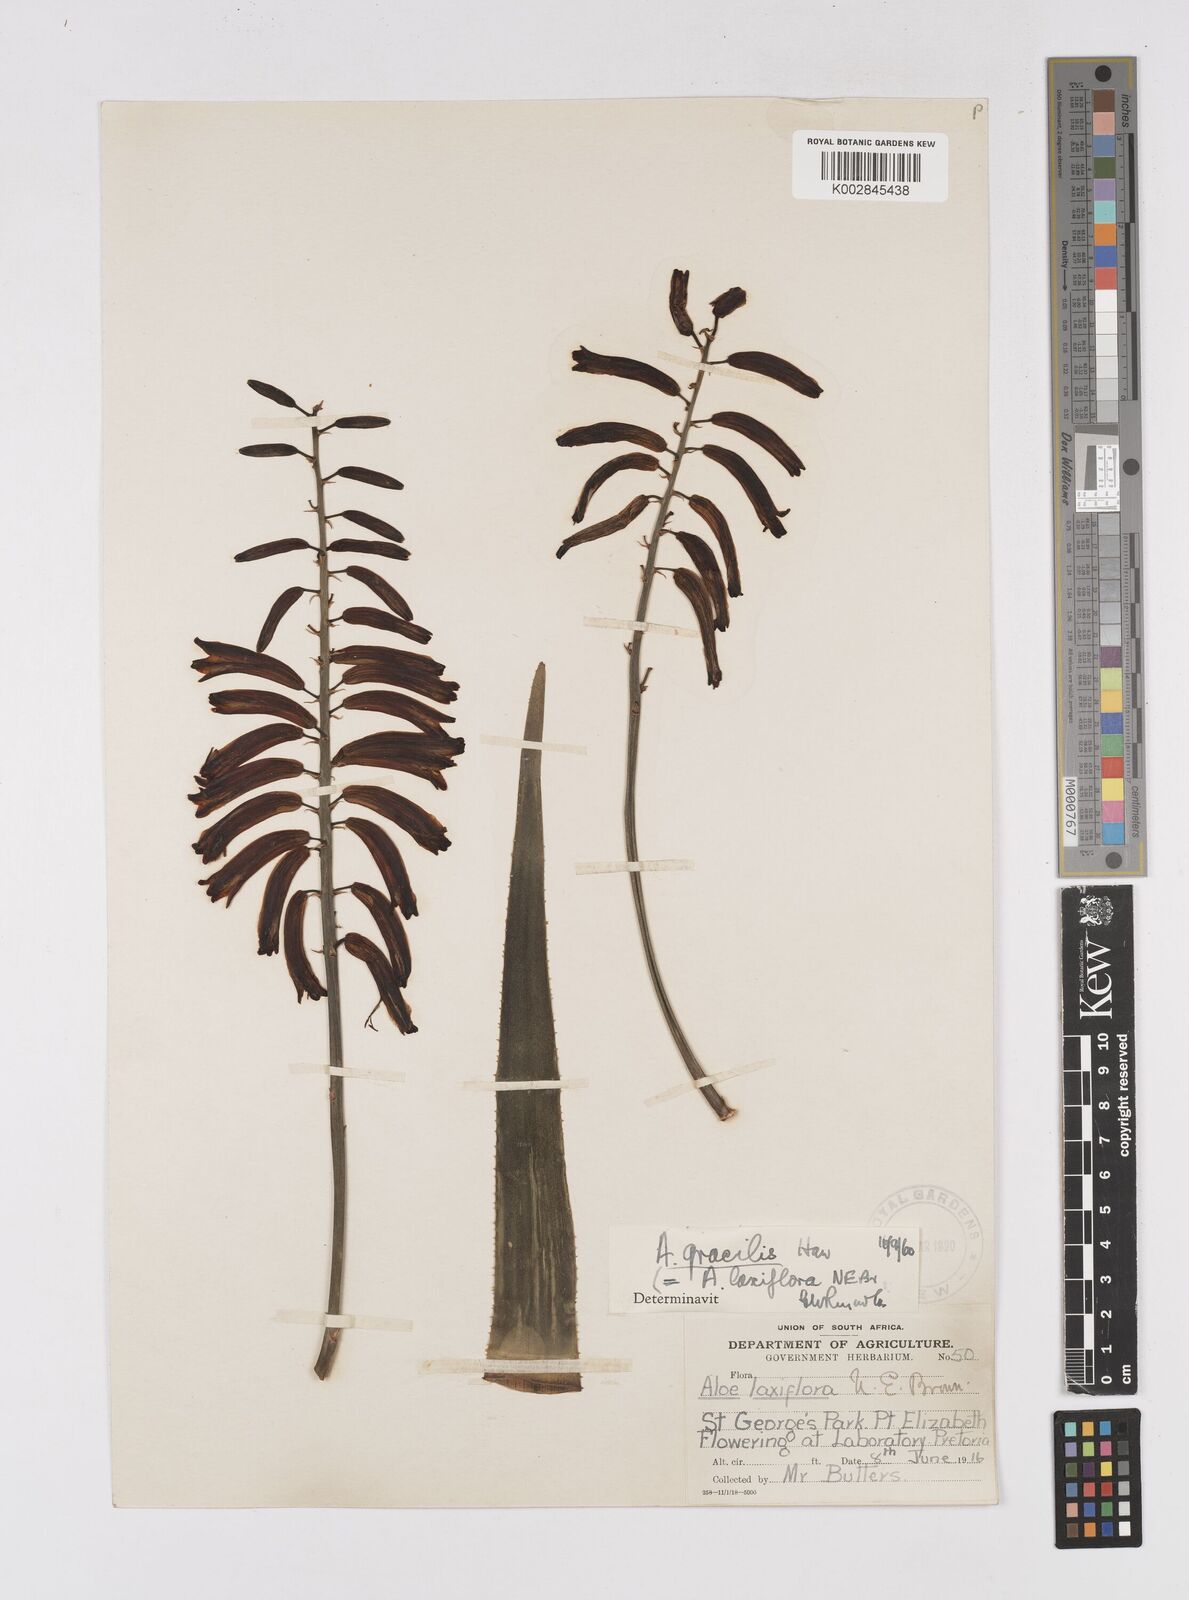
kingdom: Plantae
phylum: Tracheophyta
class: Liliopsida
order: Asparagales
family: Asphodelaceae
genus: Aloiampelos
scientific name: Aloiampelos gracilis
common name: Scrambling aloe
